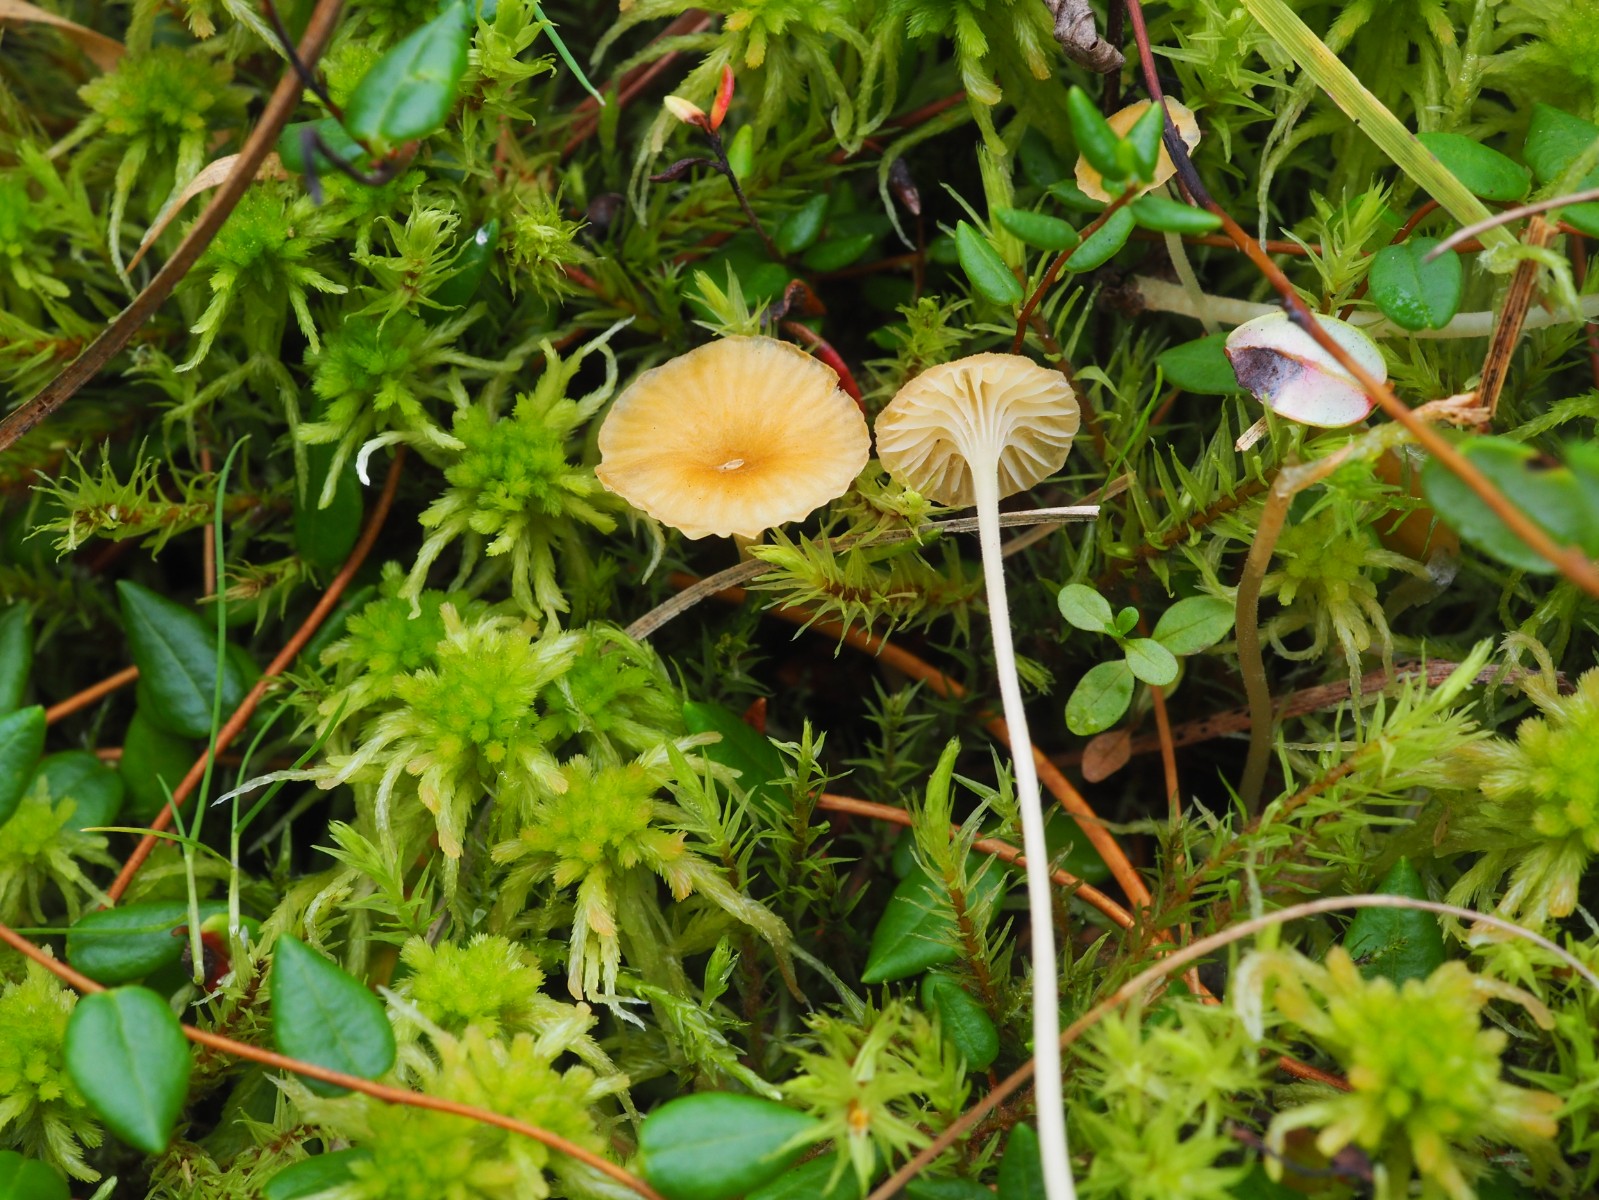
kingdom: Fungi
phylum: Basidiomycota
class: Agaricomycetes
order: Hymenochaetales
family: Rickenellaceae
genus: Rickenella
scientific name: Rickenella fibula
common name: orange mosnavlehat
